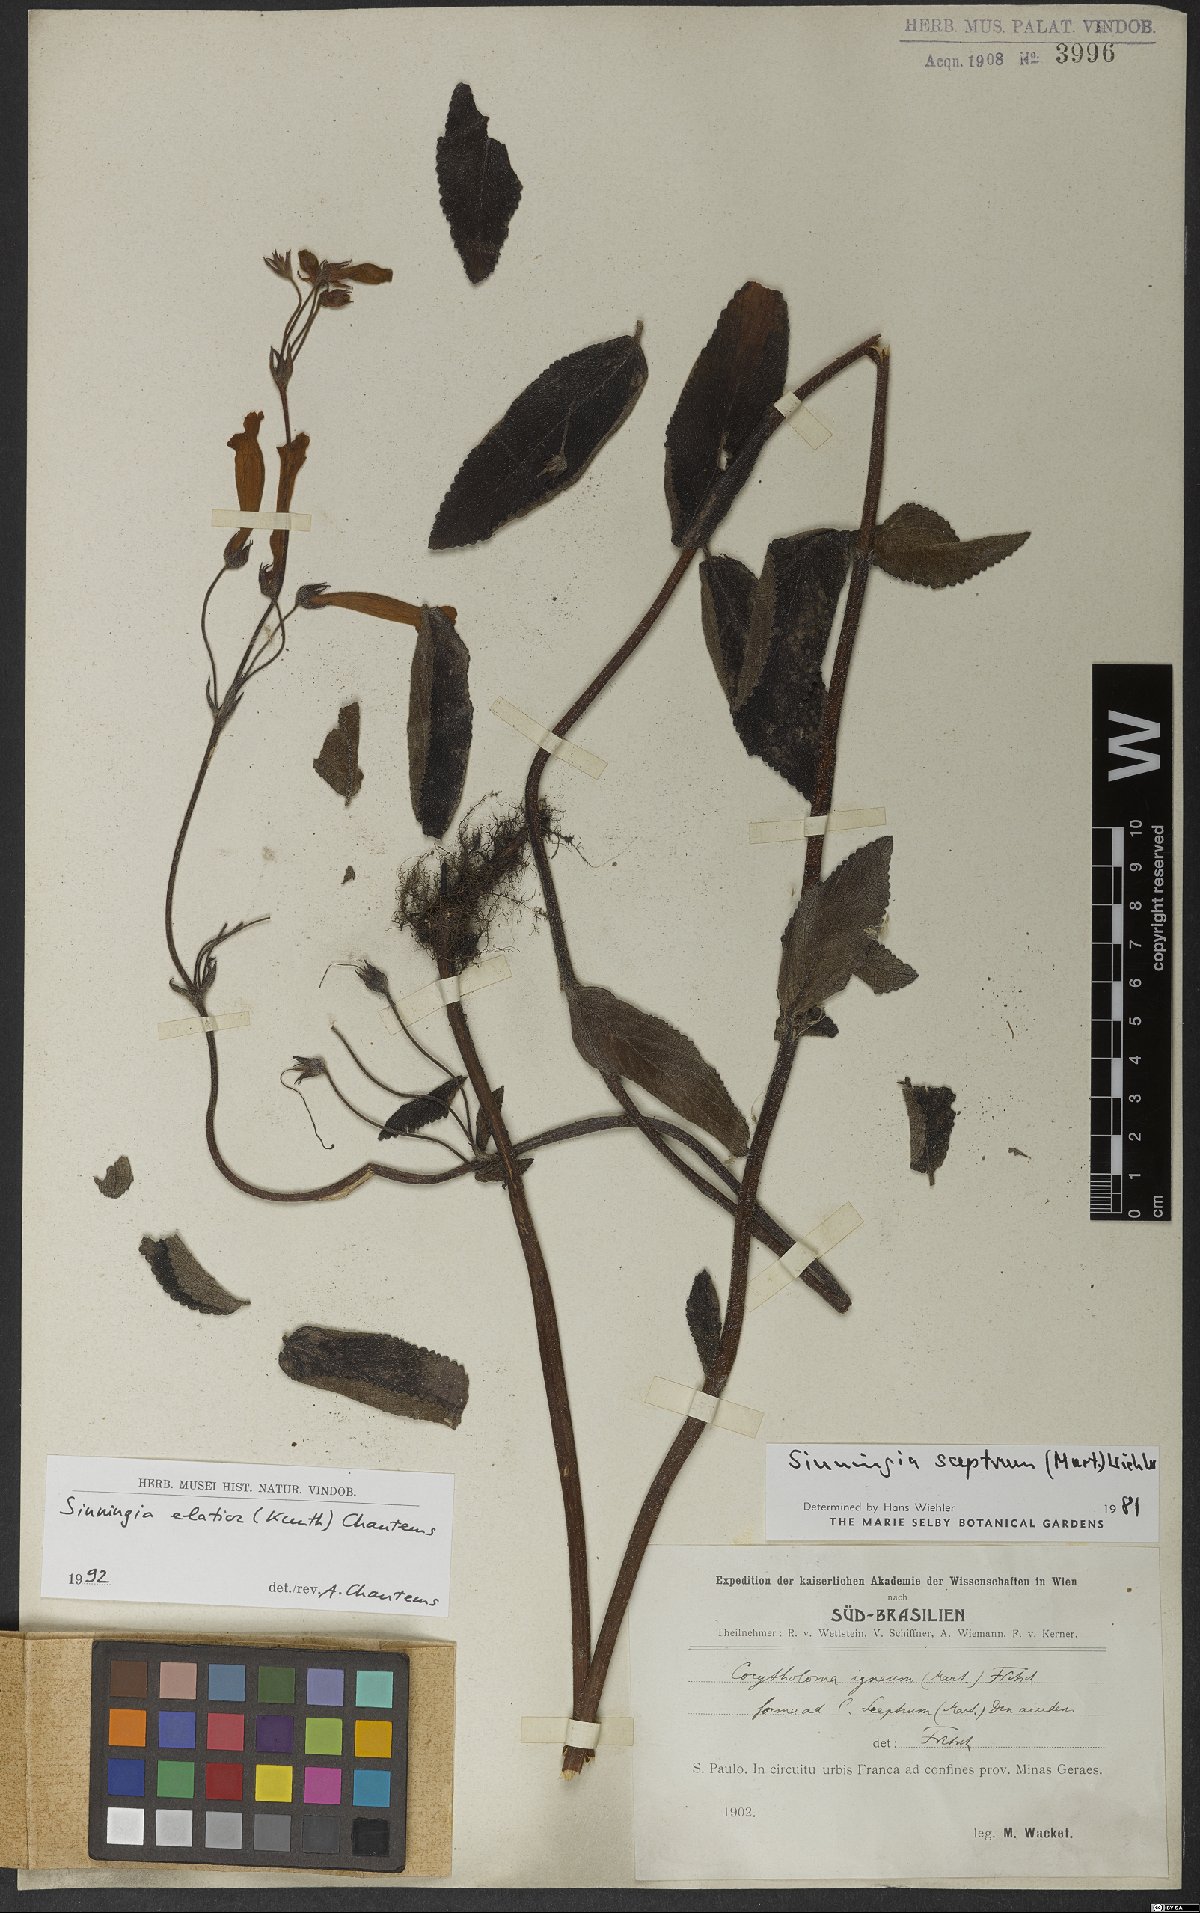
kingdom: Plantae
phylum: Tracheophyta
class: Magnoliopsida
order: Lamiales
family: Gesneriaceae
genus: Sinningia
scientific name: Sinningia elatior
